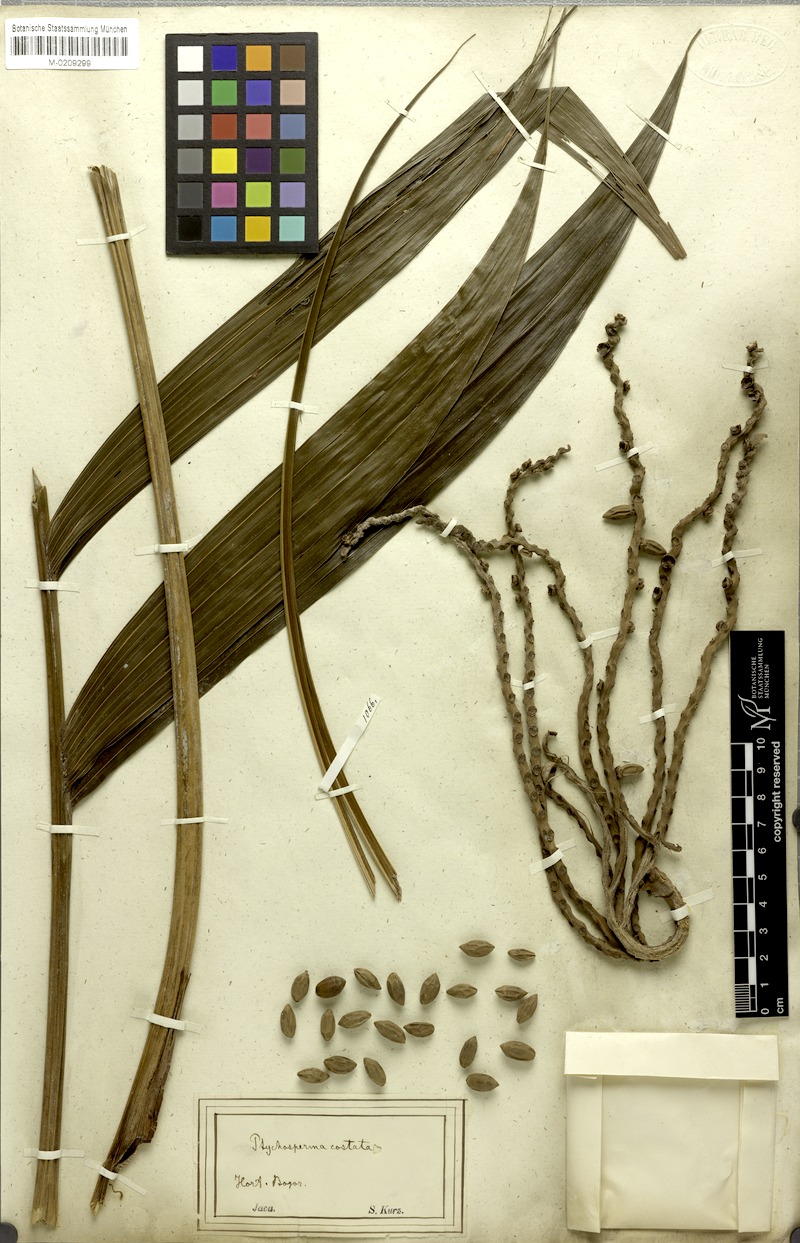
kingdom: Plantae
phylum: Tracheophyta
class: Liliopsida
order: Arecales
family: Arecaceae
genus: Pinanga
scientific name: Pinanga coronata
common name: Ivory cane palm
